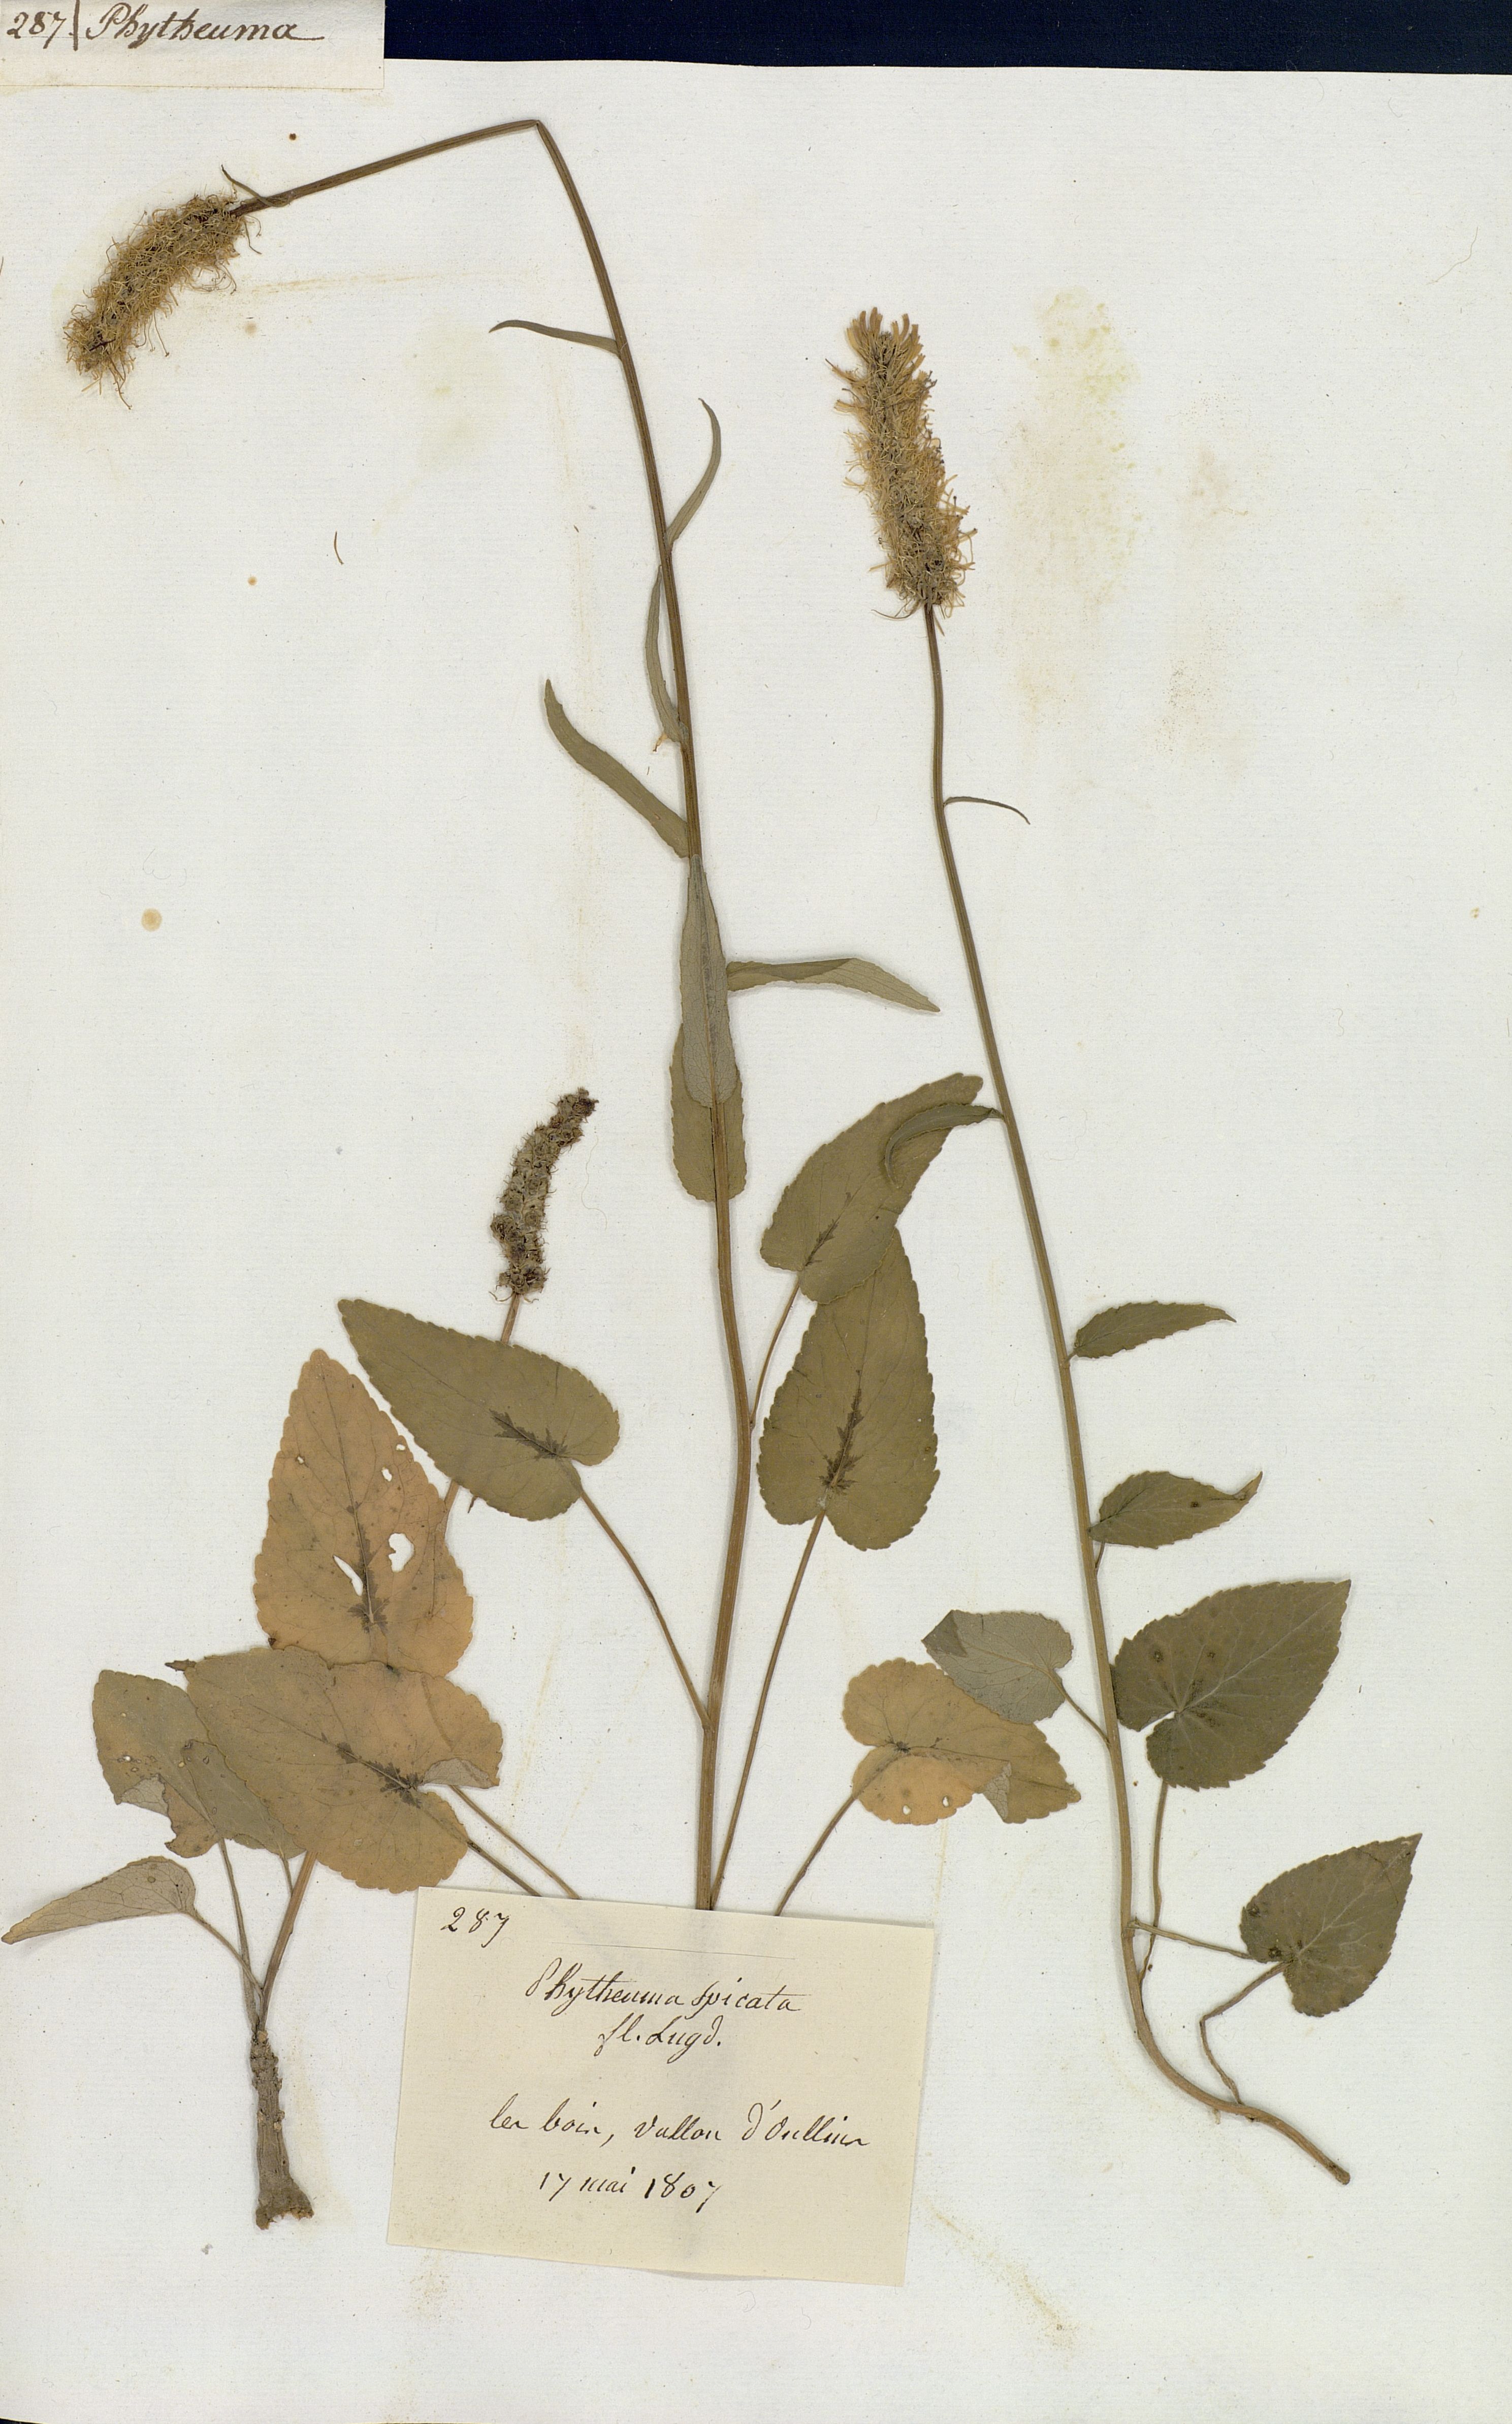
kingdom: Plantae
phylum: Tracheophyta
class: Magnoliopsida
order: Asterales
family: Campanulaceae
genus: Phyteuma
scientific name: Phyteuma spicatum
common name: Spiked rampion
